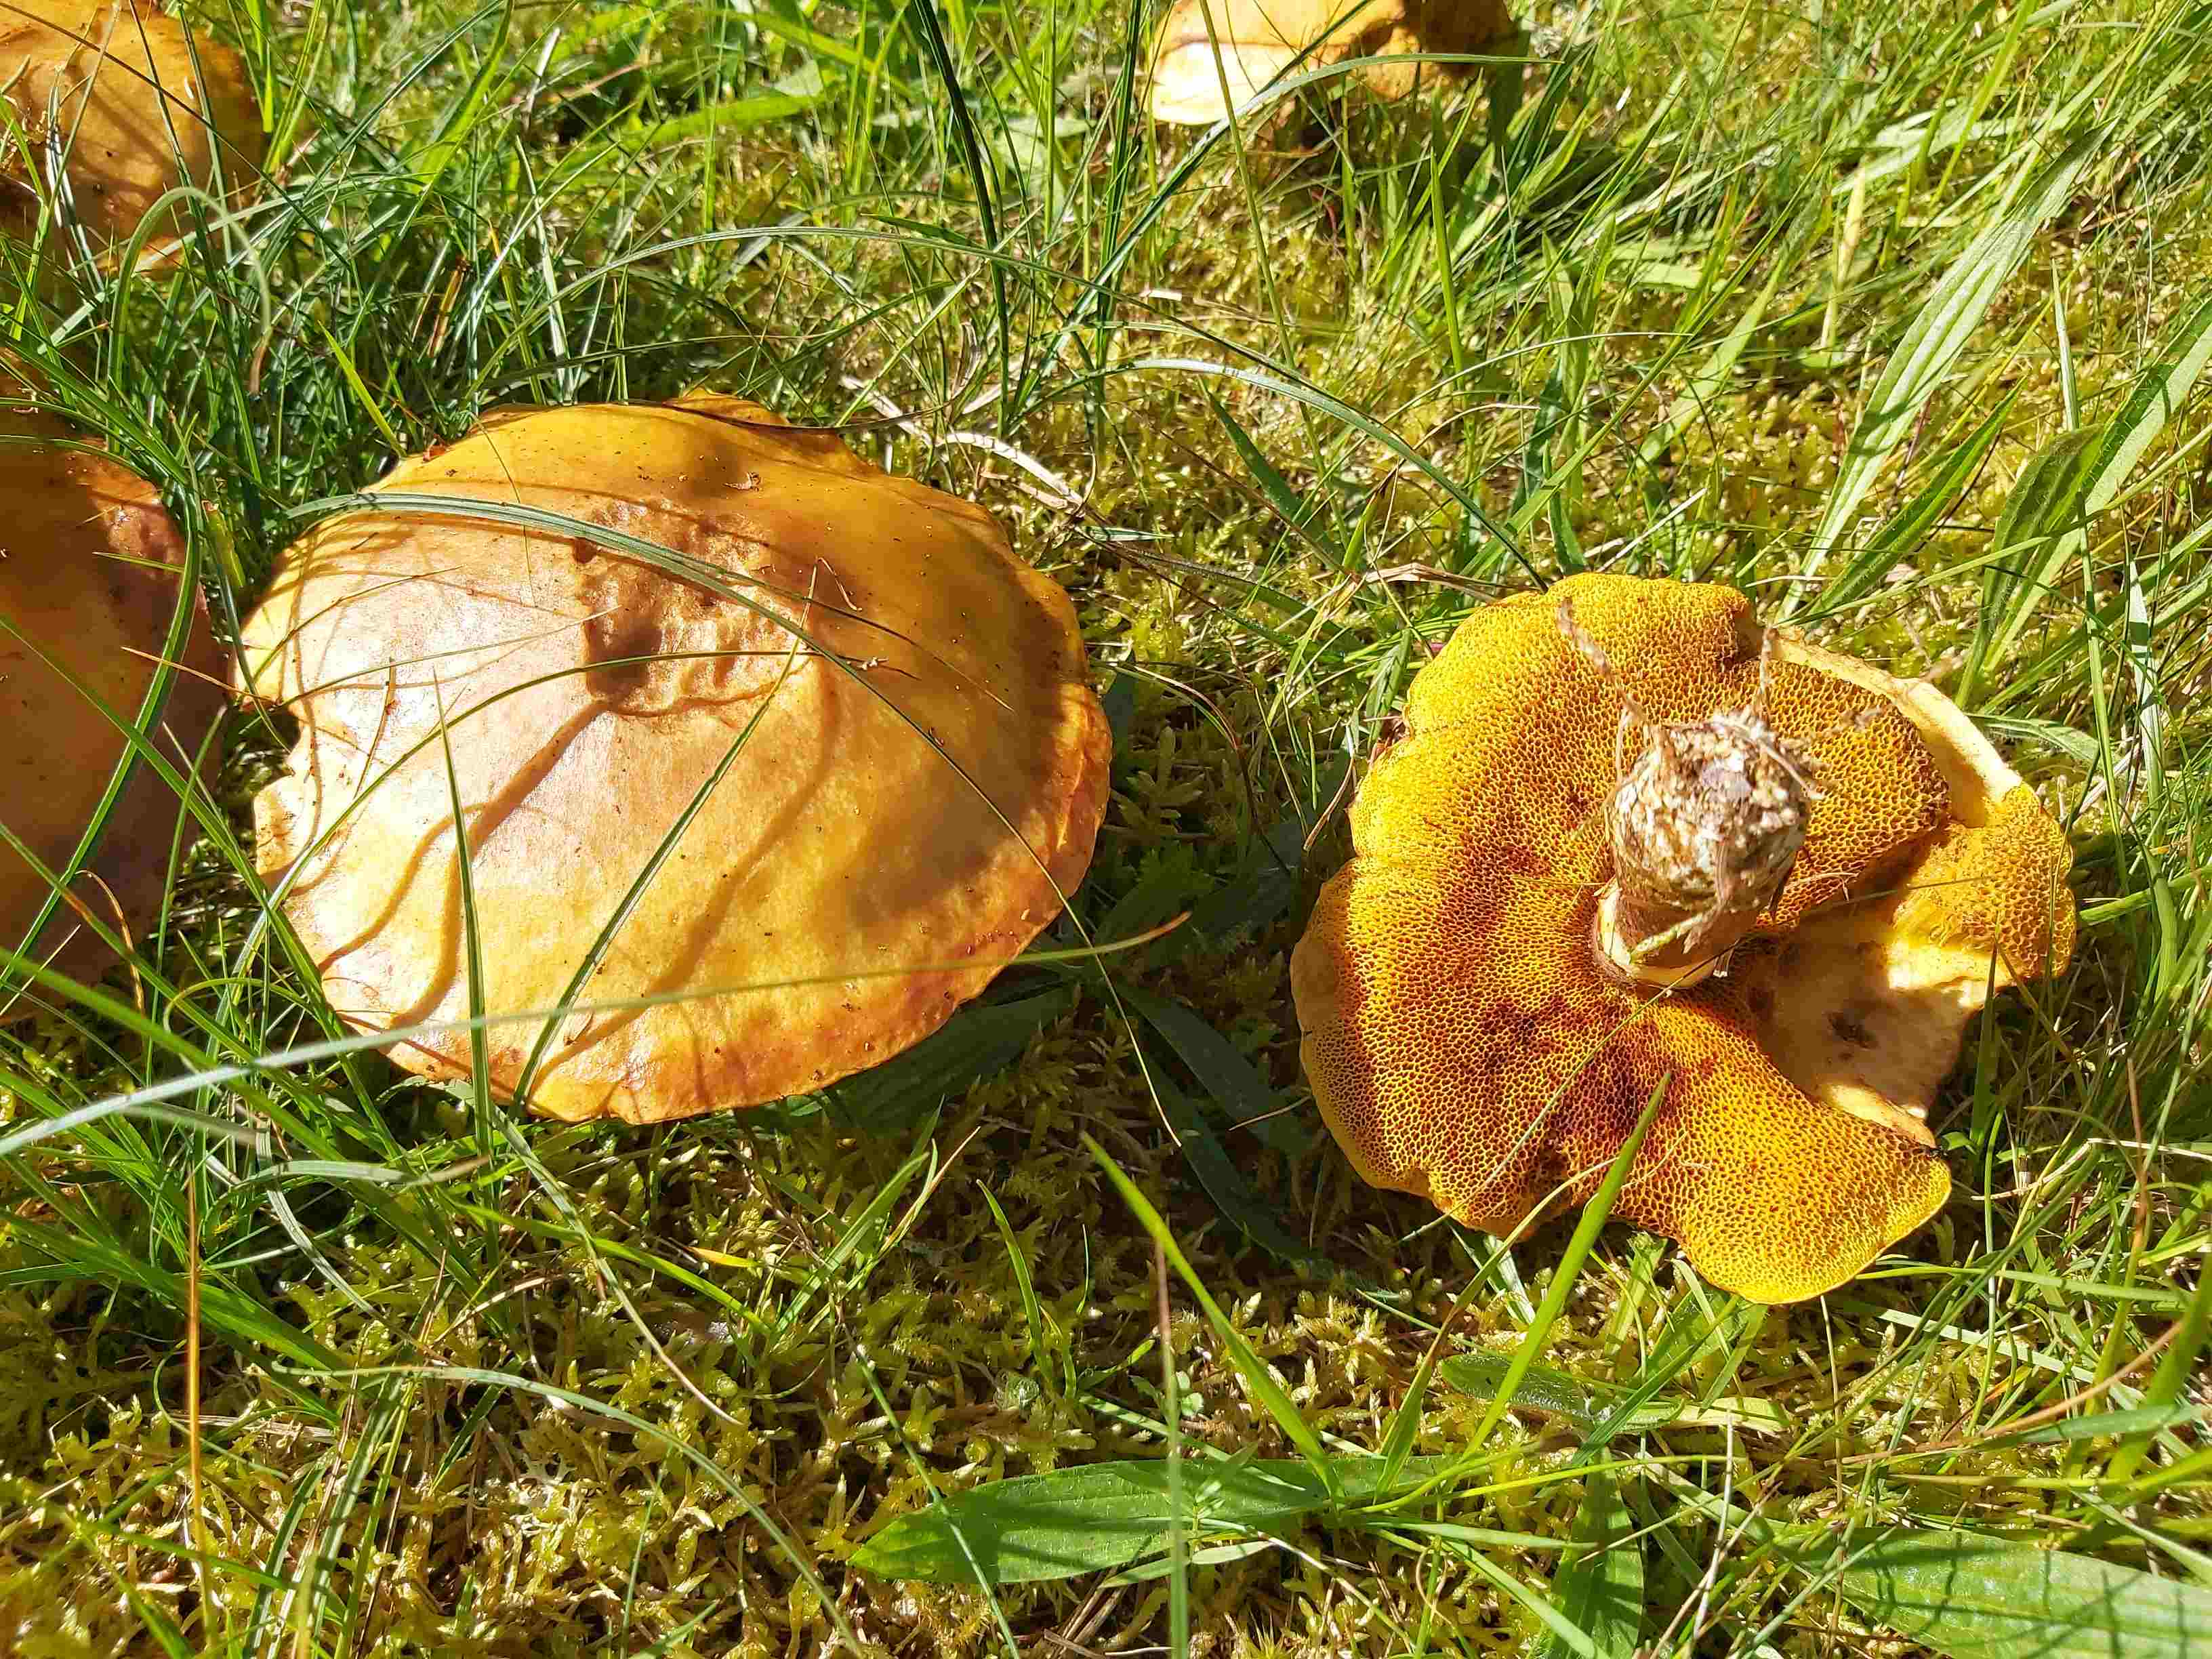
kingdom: Fungi
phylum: Basidiomycota
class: Agaricomycetes
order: Boletales
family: Suillaceae
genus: Suillus
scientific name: Suillus grevillei
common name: lærke-slimrørhat
